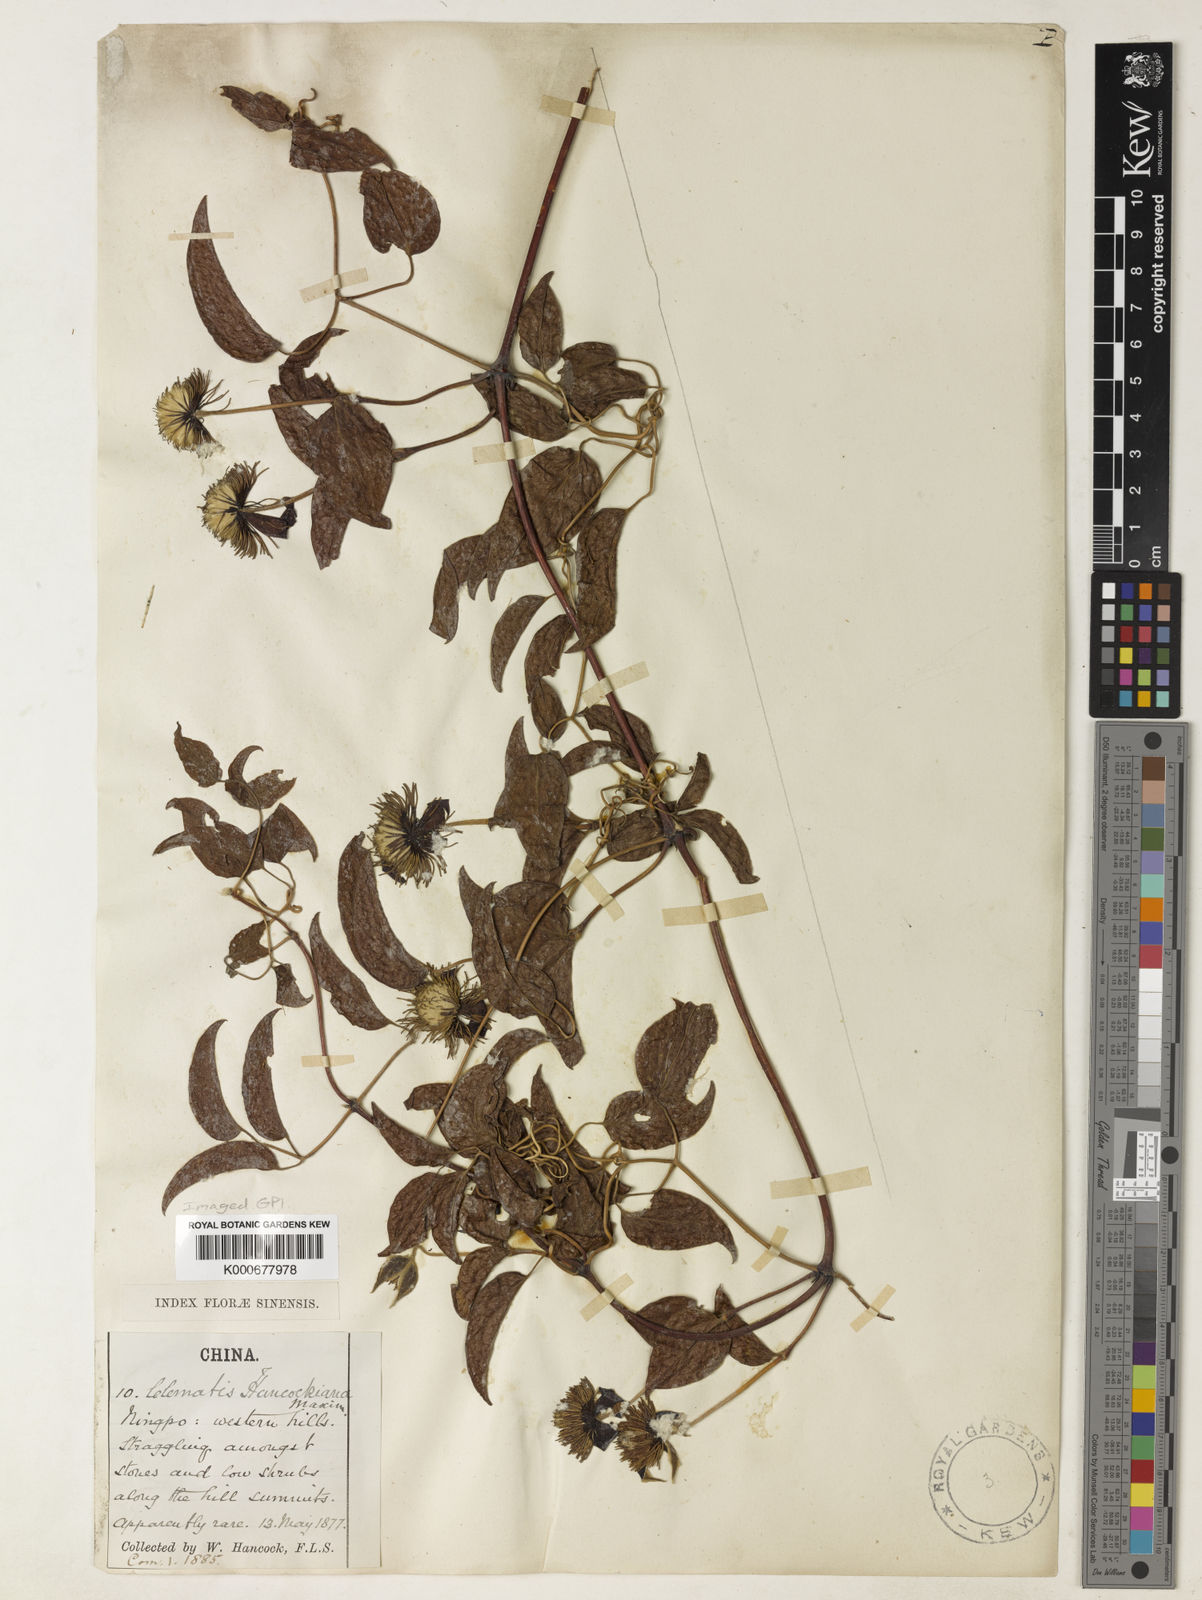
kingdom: Plantae
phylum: Tracheophyta
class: Magnoliopsida
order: Ranunculales
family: Ranunculaceae
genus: Clematis
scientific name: Clematis hancockiana
